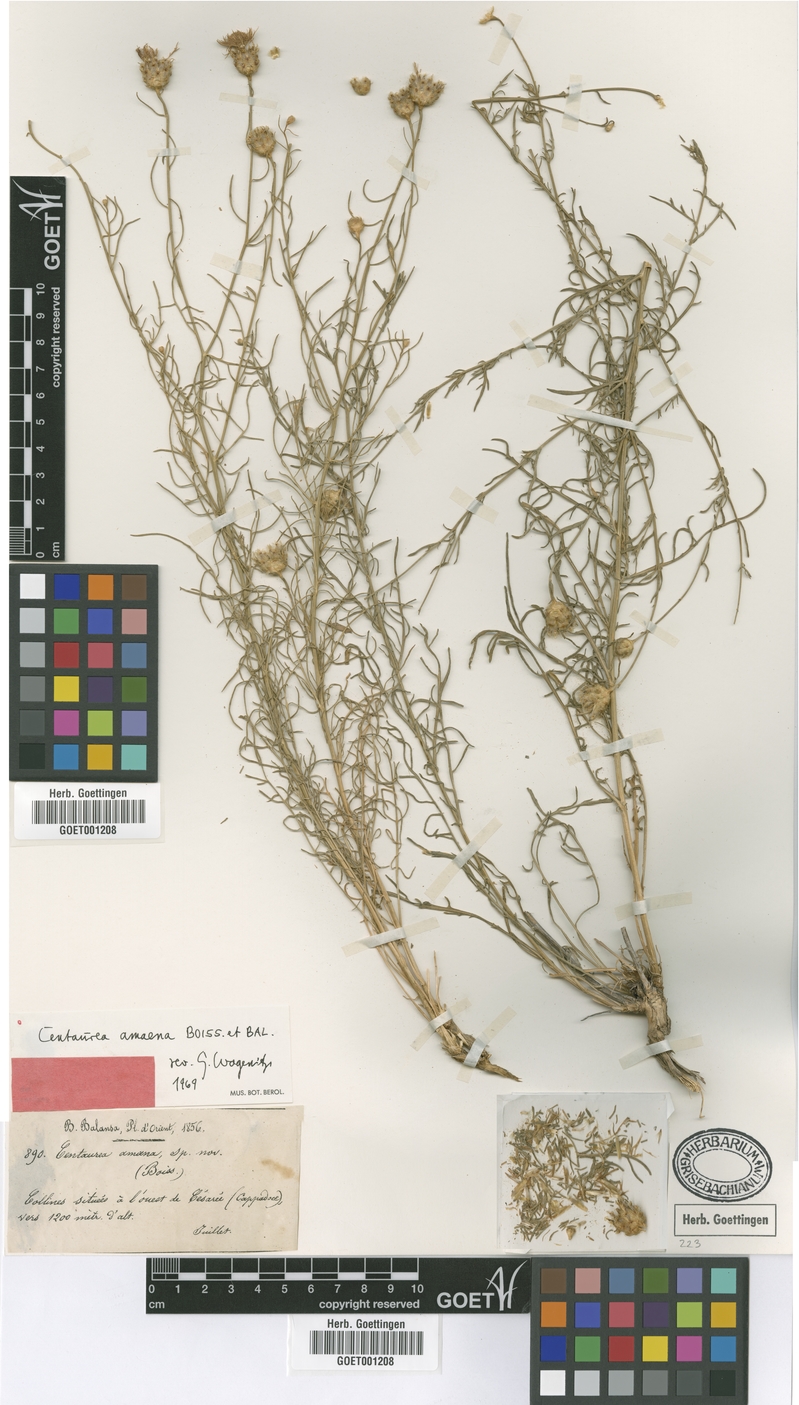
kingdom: Plantae
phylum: Tracheophyta
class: Magnoliopsida
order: Asterales
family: Asteraceae
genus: Centaurea
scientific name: Centaurea amaena
